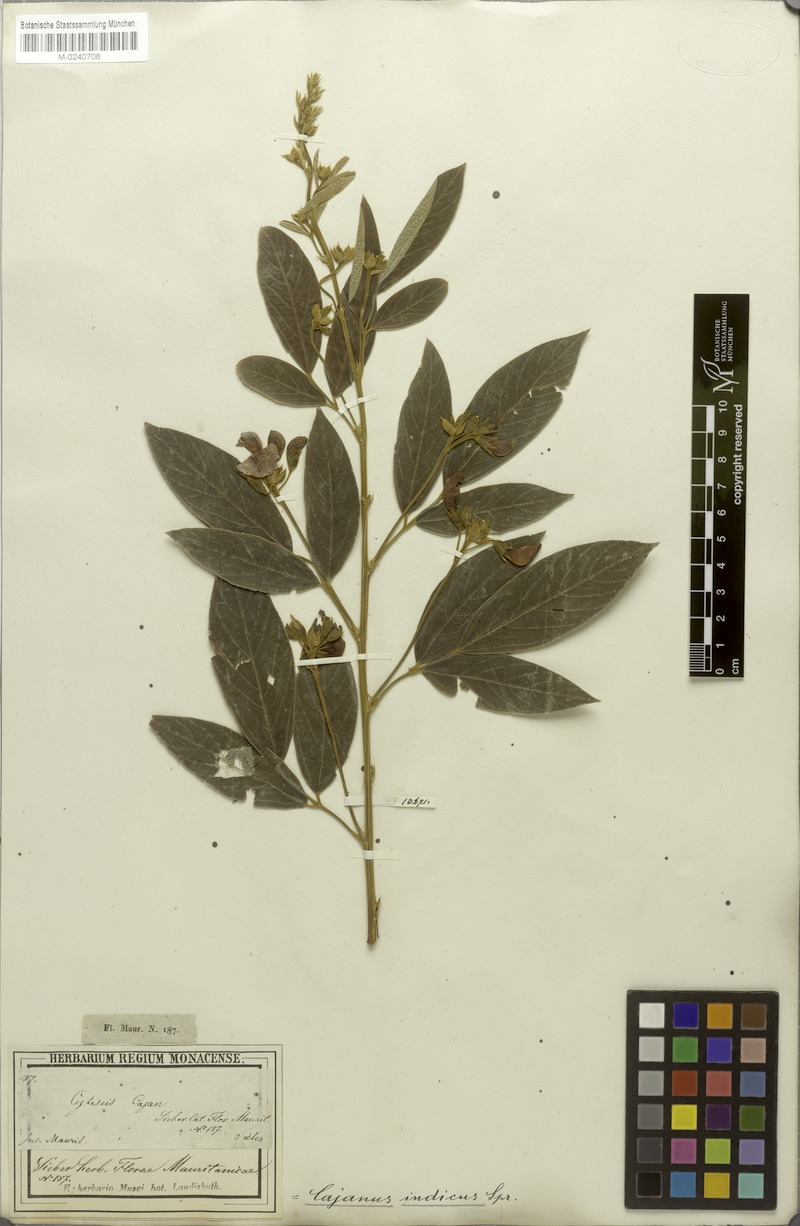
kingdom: Plantae
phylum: Tracheophyta
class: Magnoliopsida
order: Fabales
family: Fabaceae
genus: Cajanus
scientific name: Cajanus cajan
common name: Pigeonpea
